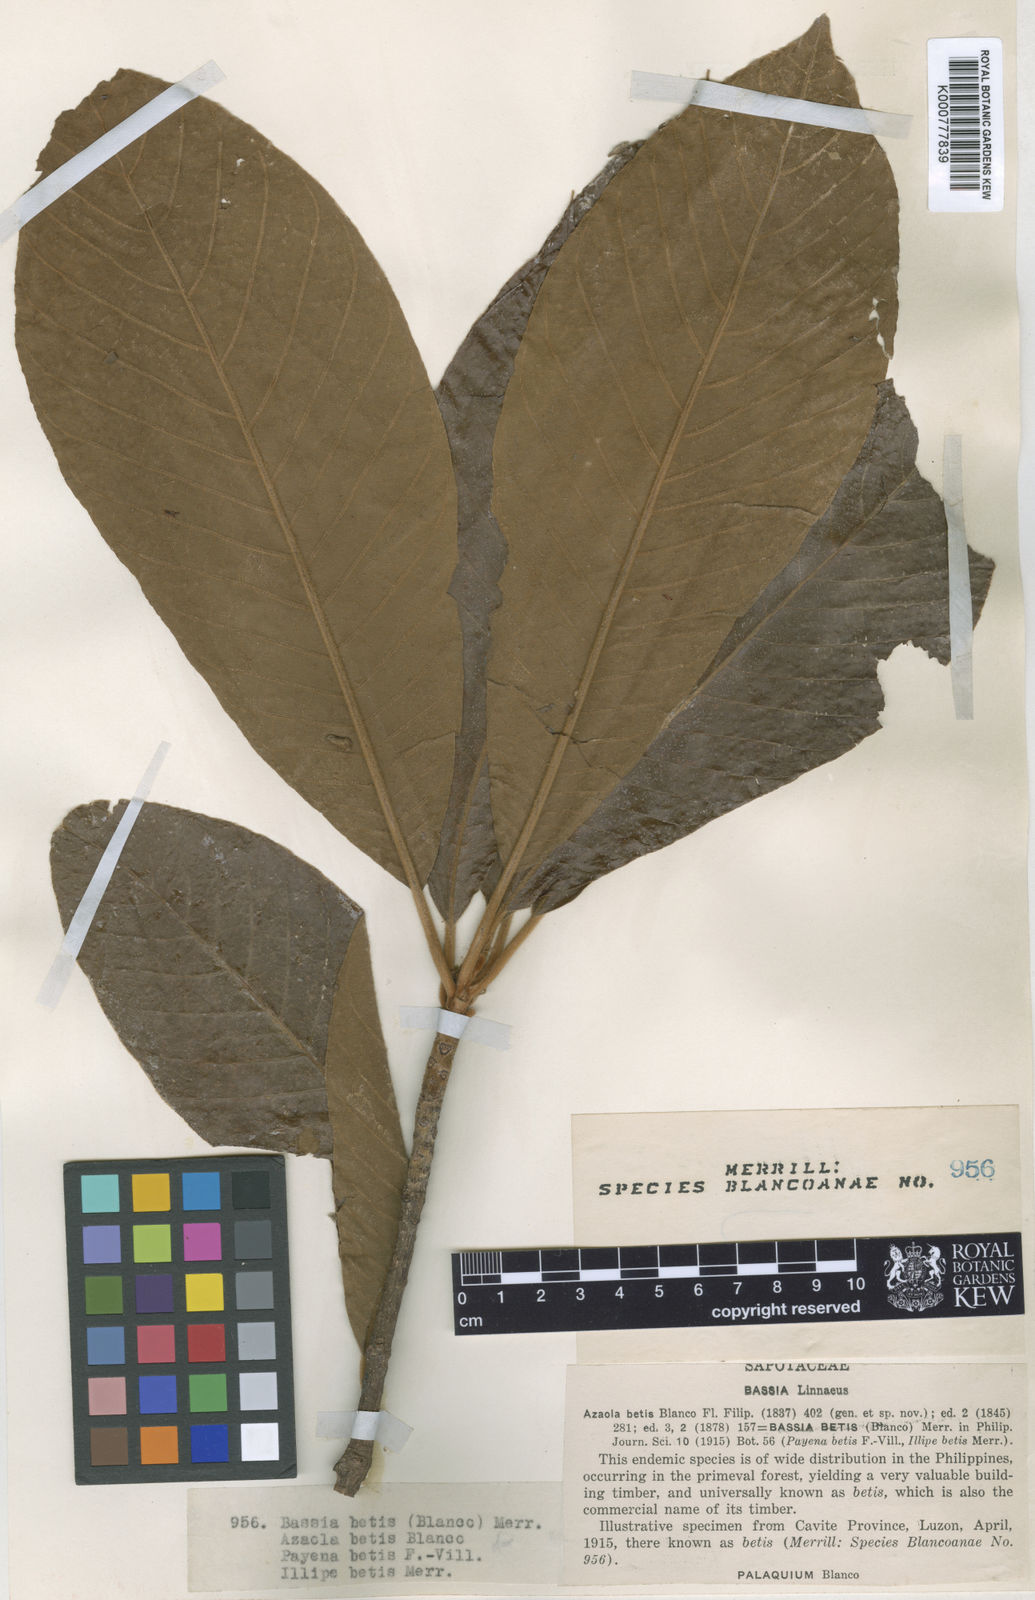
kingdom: Plantae
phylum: Tracheophyta
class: Magnoliopsida
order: Ericales
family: Sapotaceae
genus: Madhuca
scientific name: Madhuca betis
